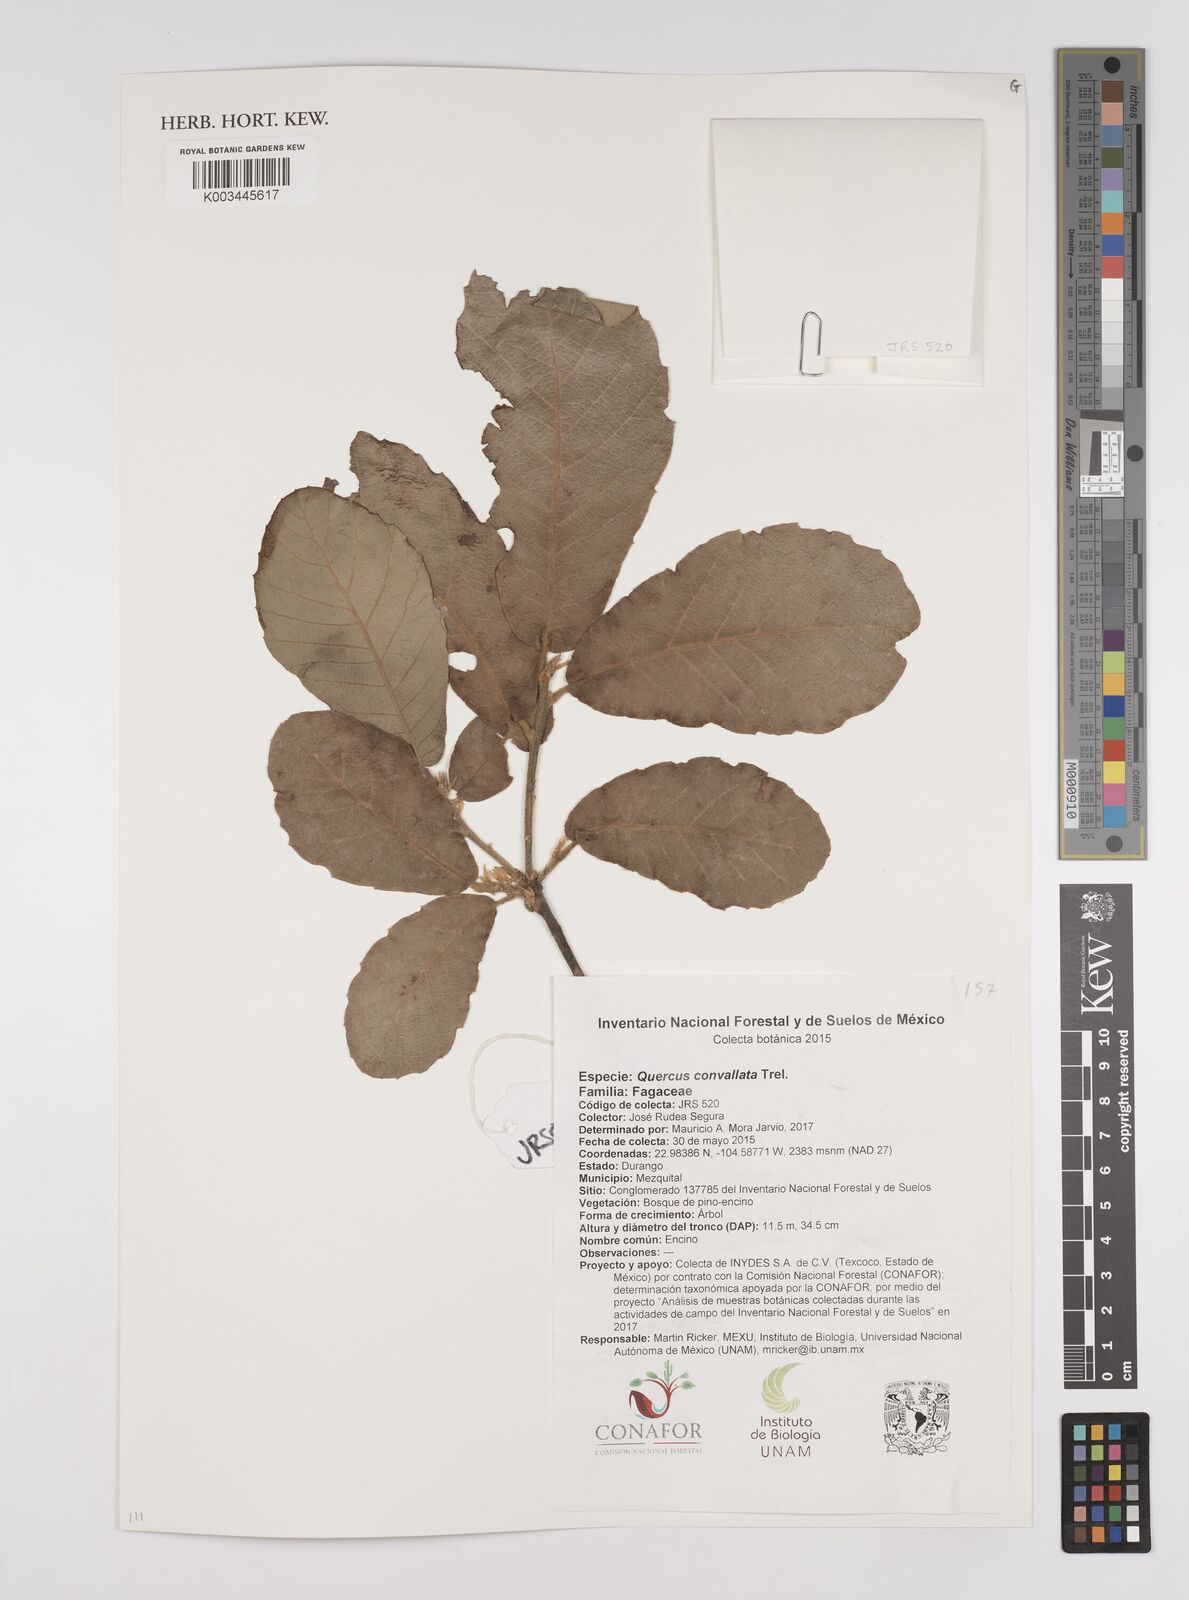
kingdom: Plantae
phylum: Tracheophyta
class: Magnoliopsida
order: Fagales
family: Fagaceae
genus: Quercus
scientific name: Quercus convallata
